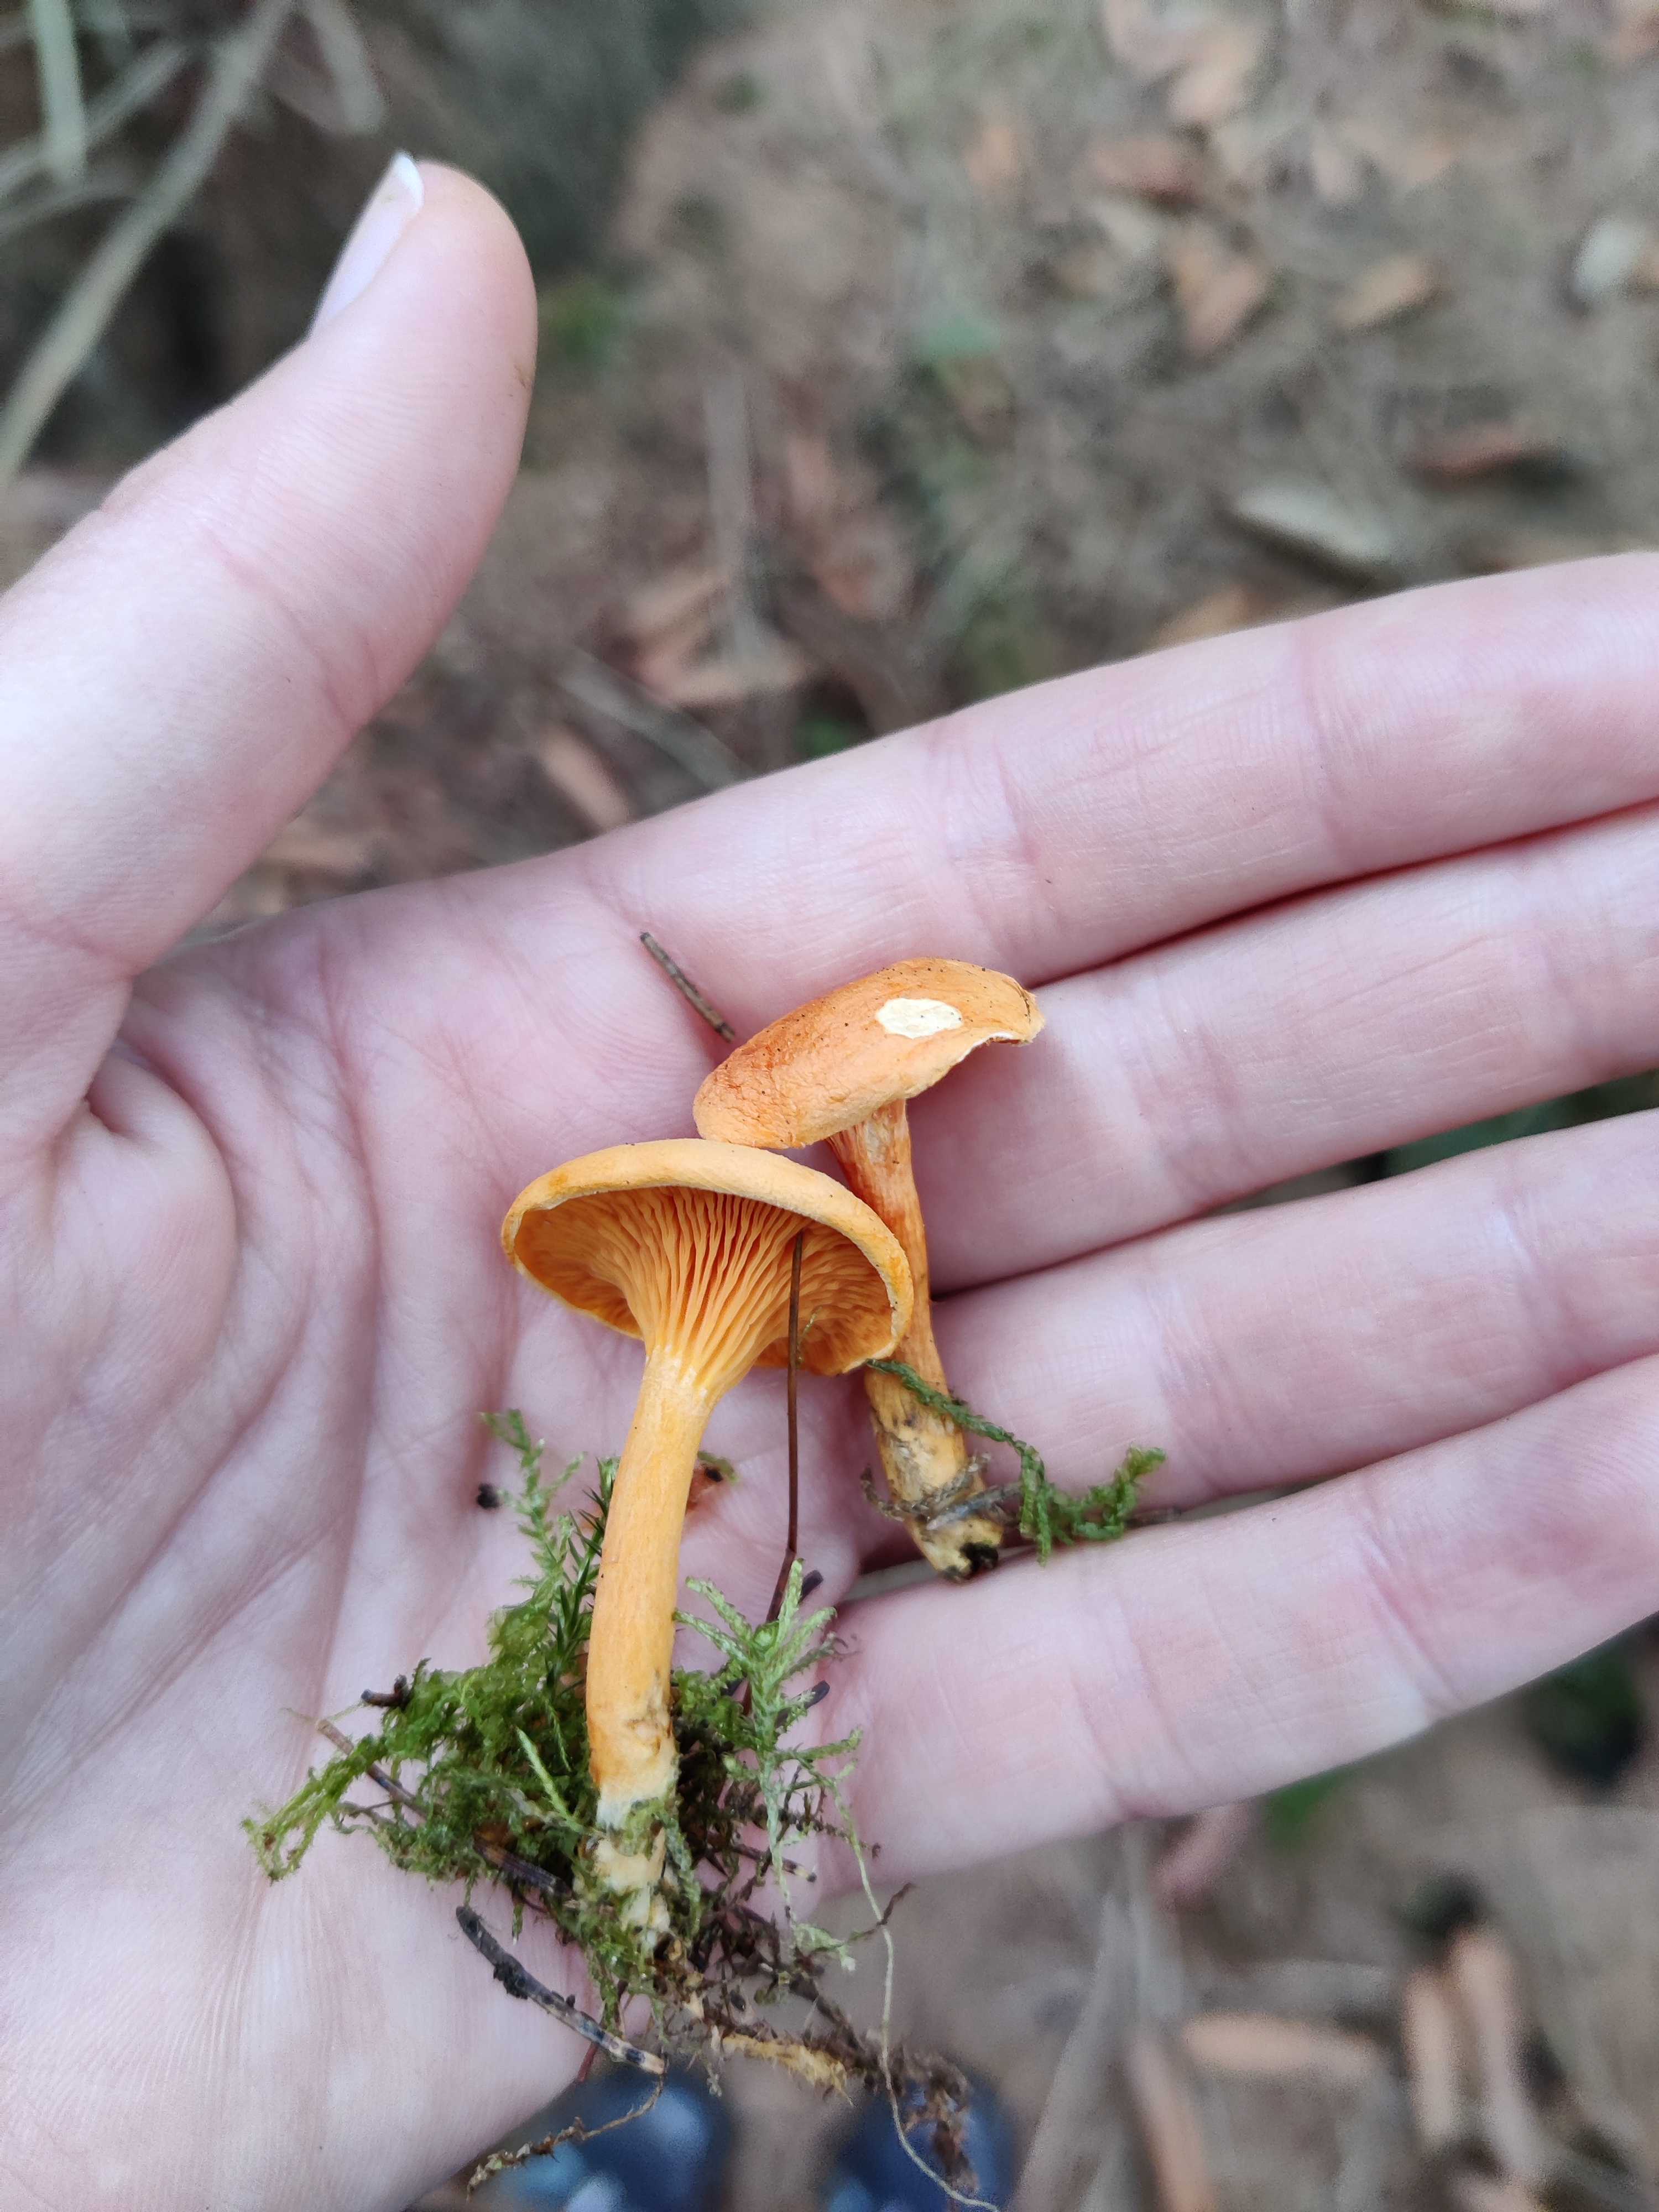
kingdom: Fungi
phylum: Basidiomycota
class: Agaricomycetes
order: Boletales
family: Hygrophoropsidaceae
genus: Hygrophoropsis
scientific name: Hygrophoropsis aurantiaca
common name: almindelig orangekantarel
